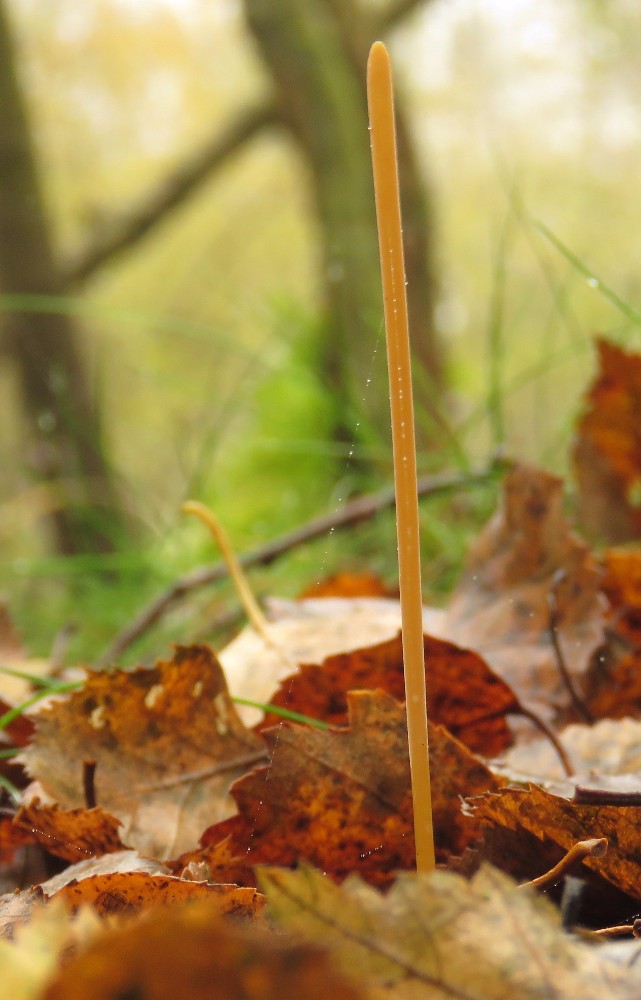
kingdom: Fungi
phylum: Basidiomycota
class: Agaricomycetes
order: Agaricales
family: Typhulaceae
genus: Typhula
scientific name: Typhula fistulosa
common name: pibet rørkølle
